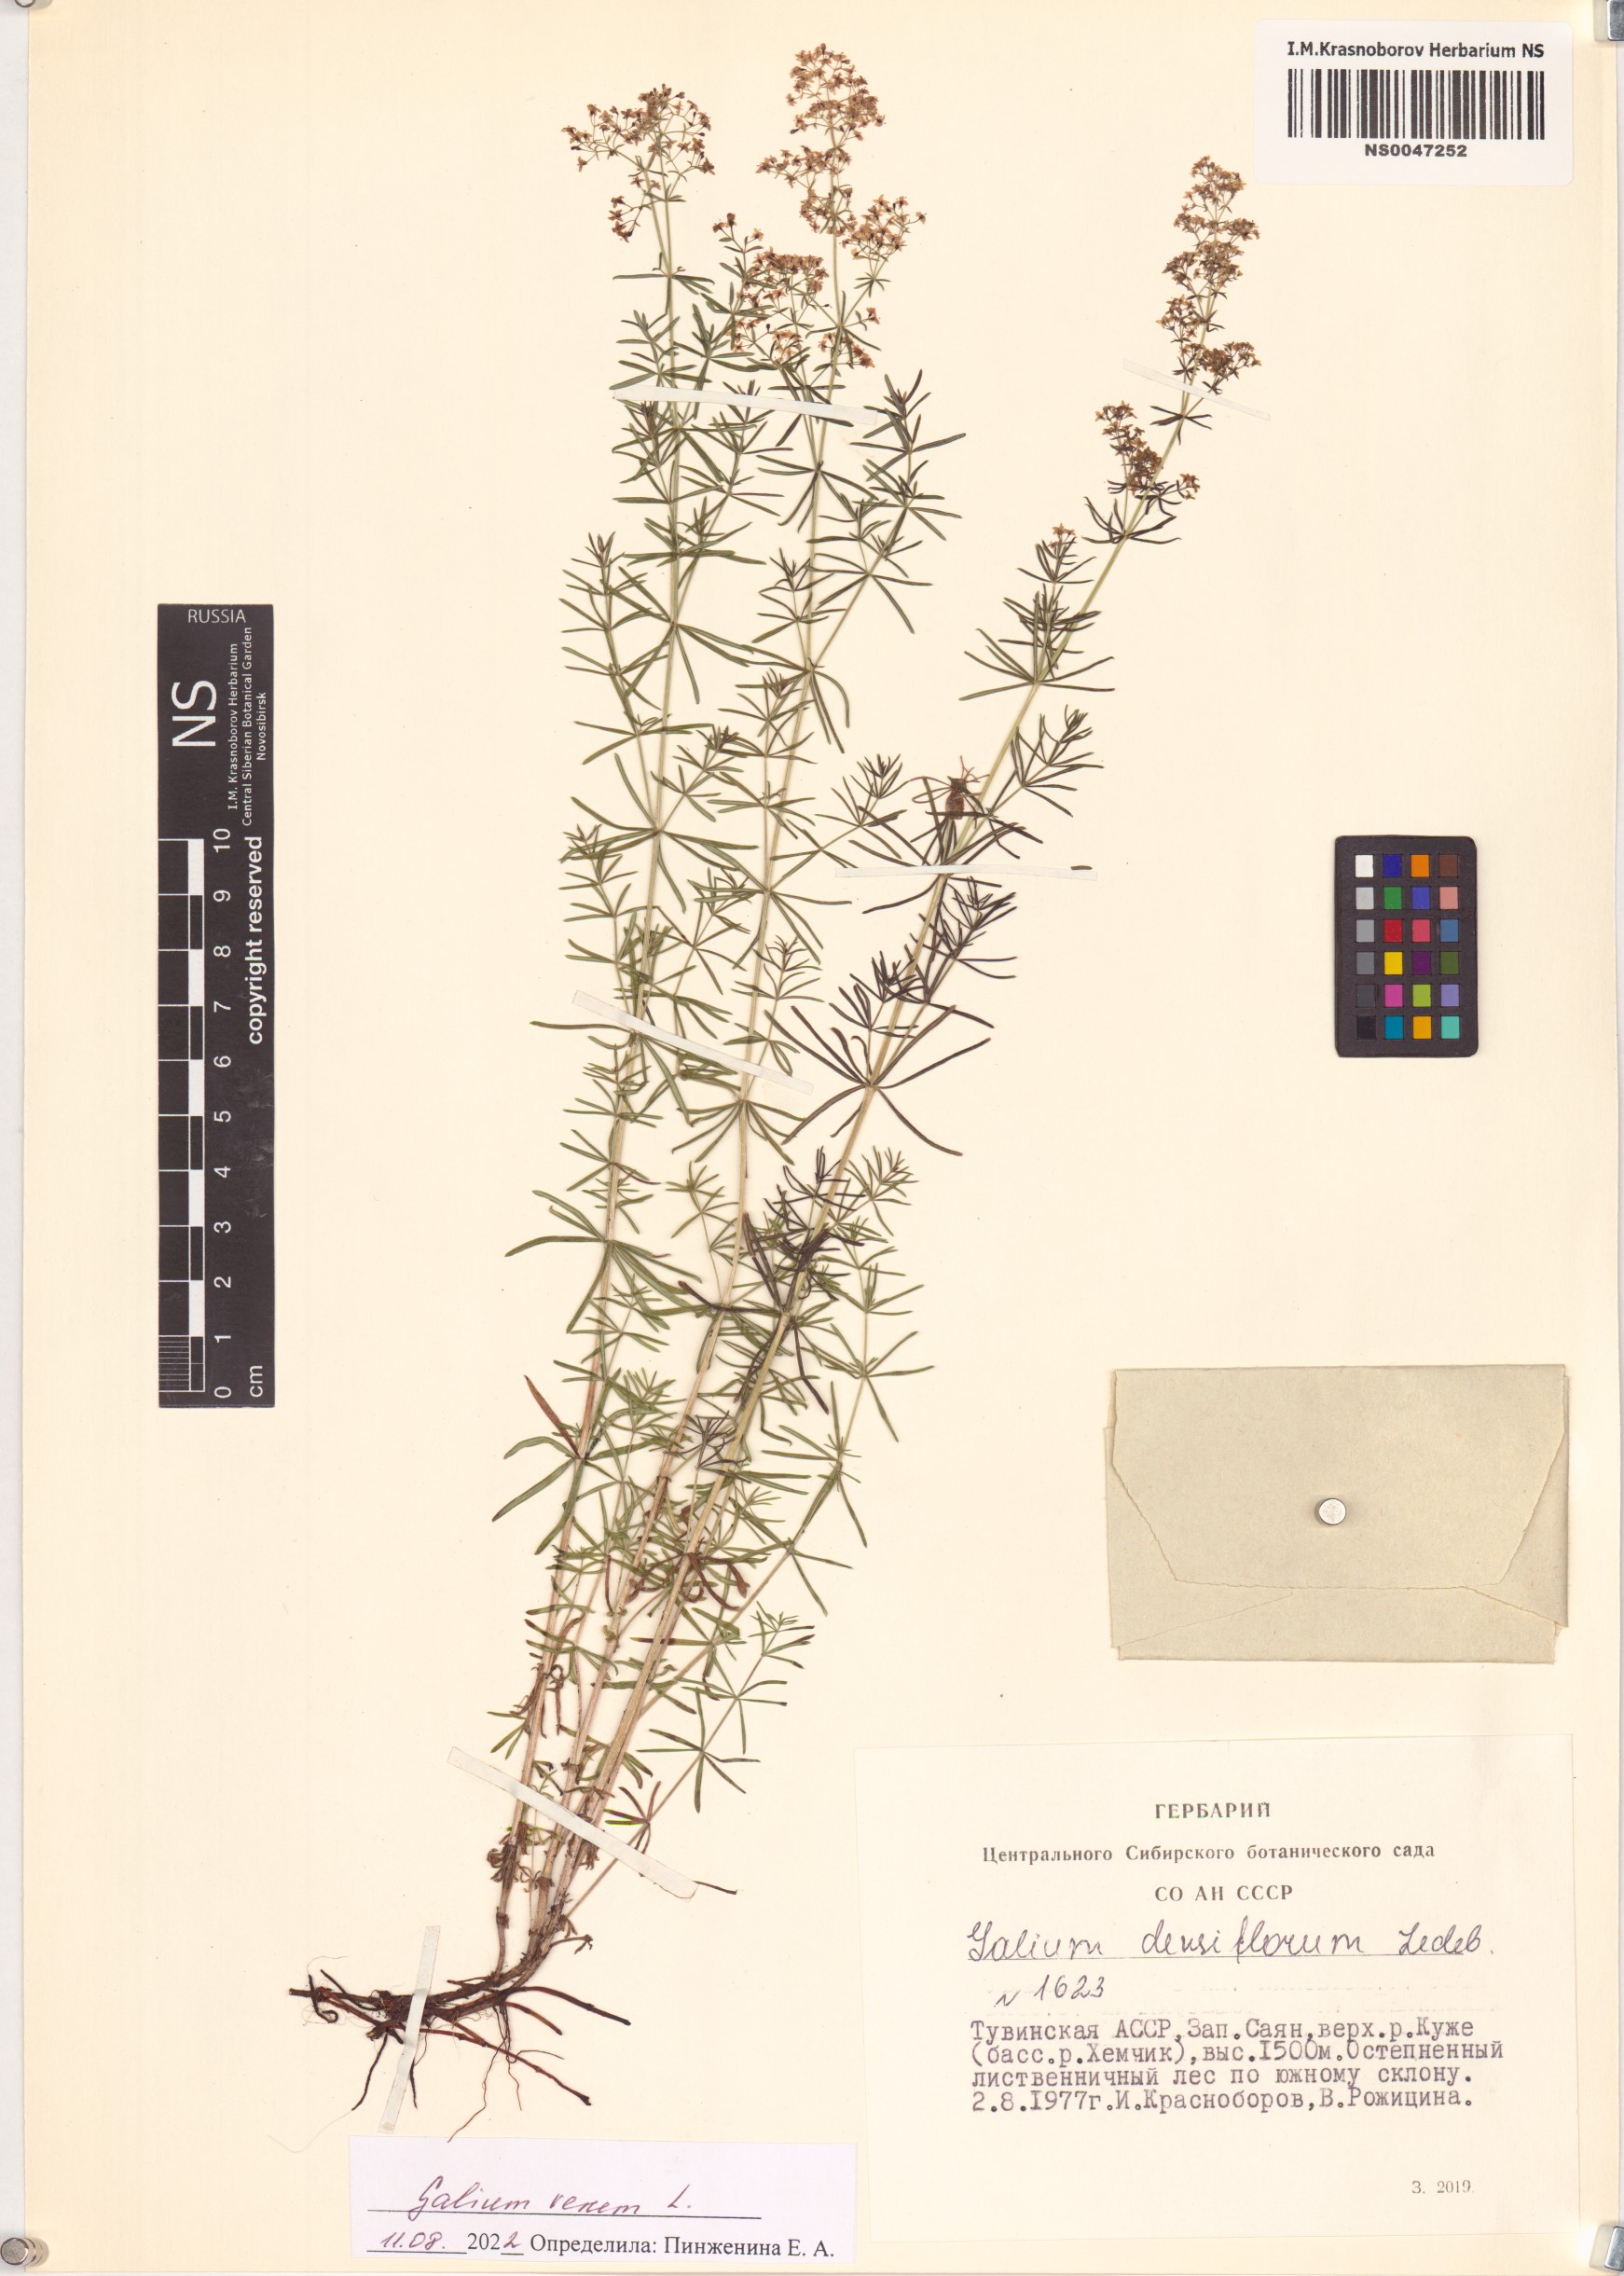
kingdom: Plantae
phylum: Tracheophyta
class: Magnoliopsida
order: Gentianales
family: Rubiaceae
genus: Galium
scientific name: Galium verum
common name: Lady's bedstraw
